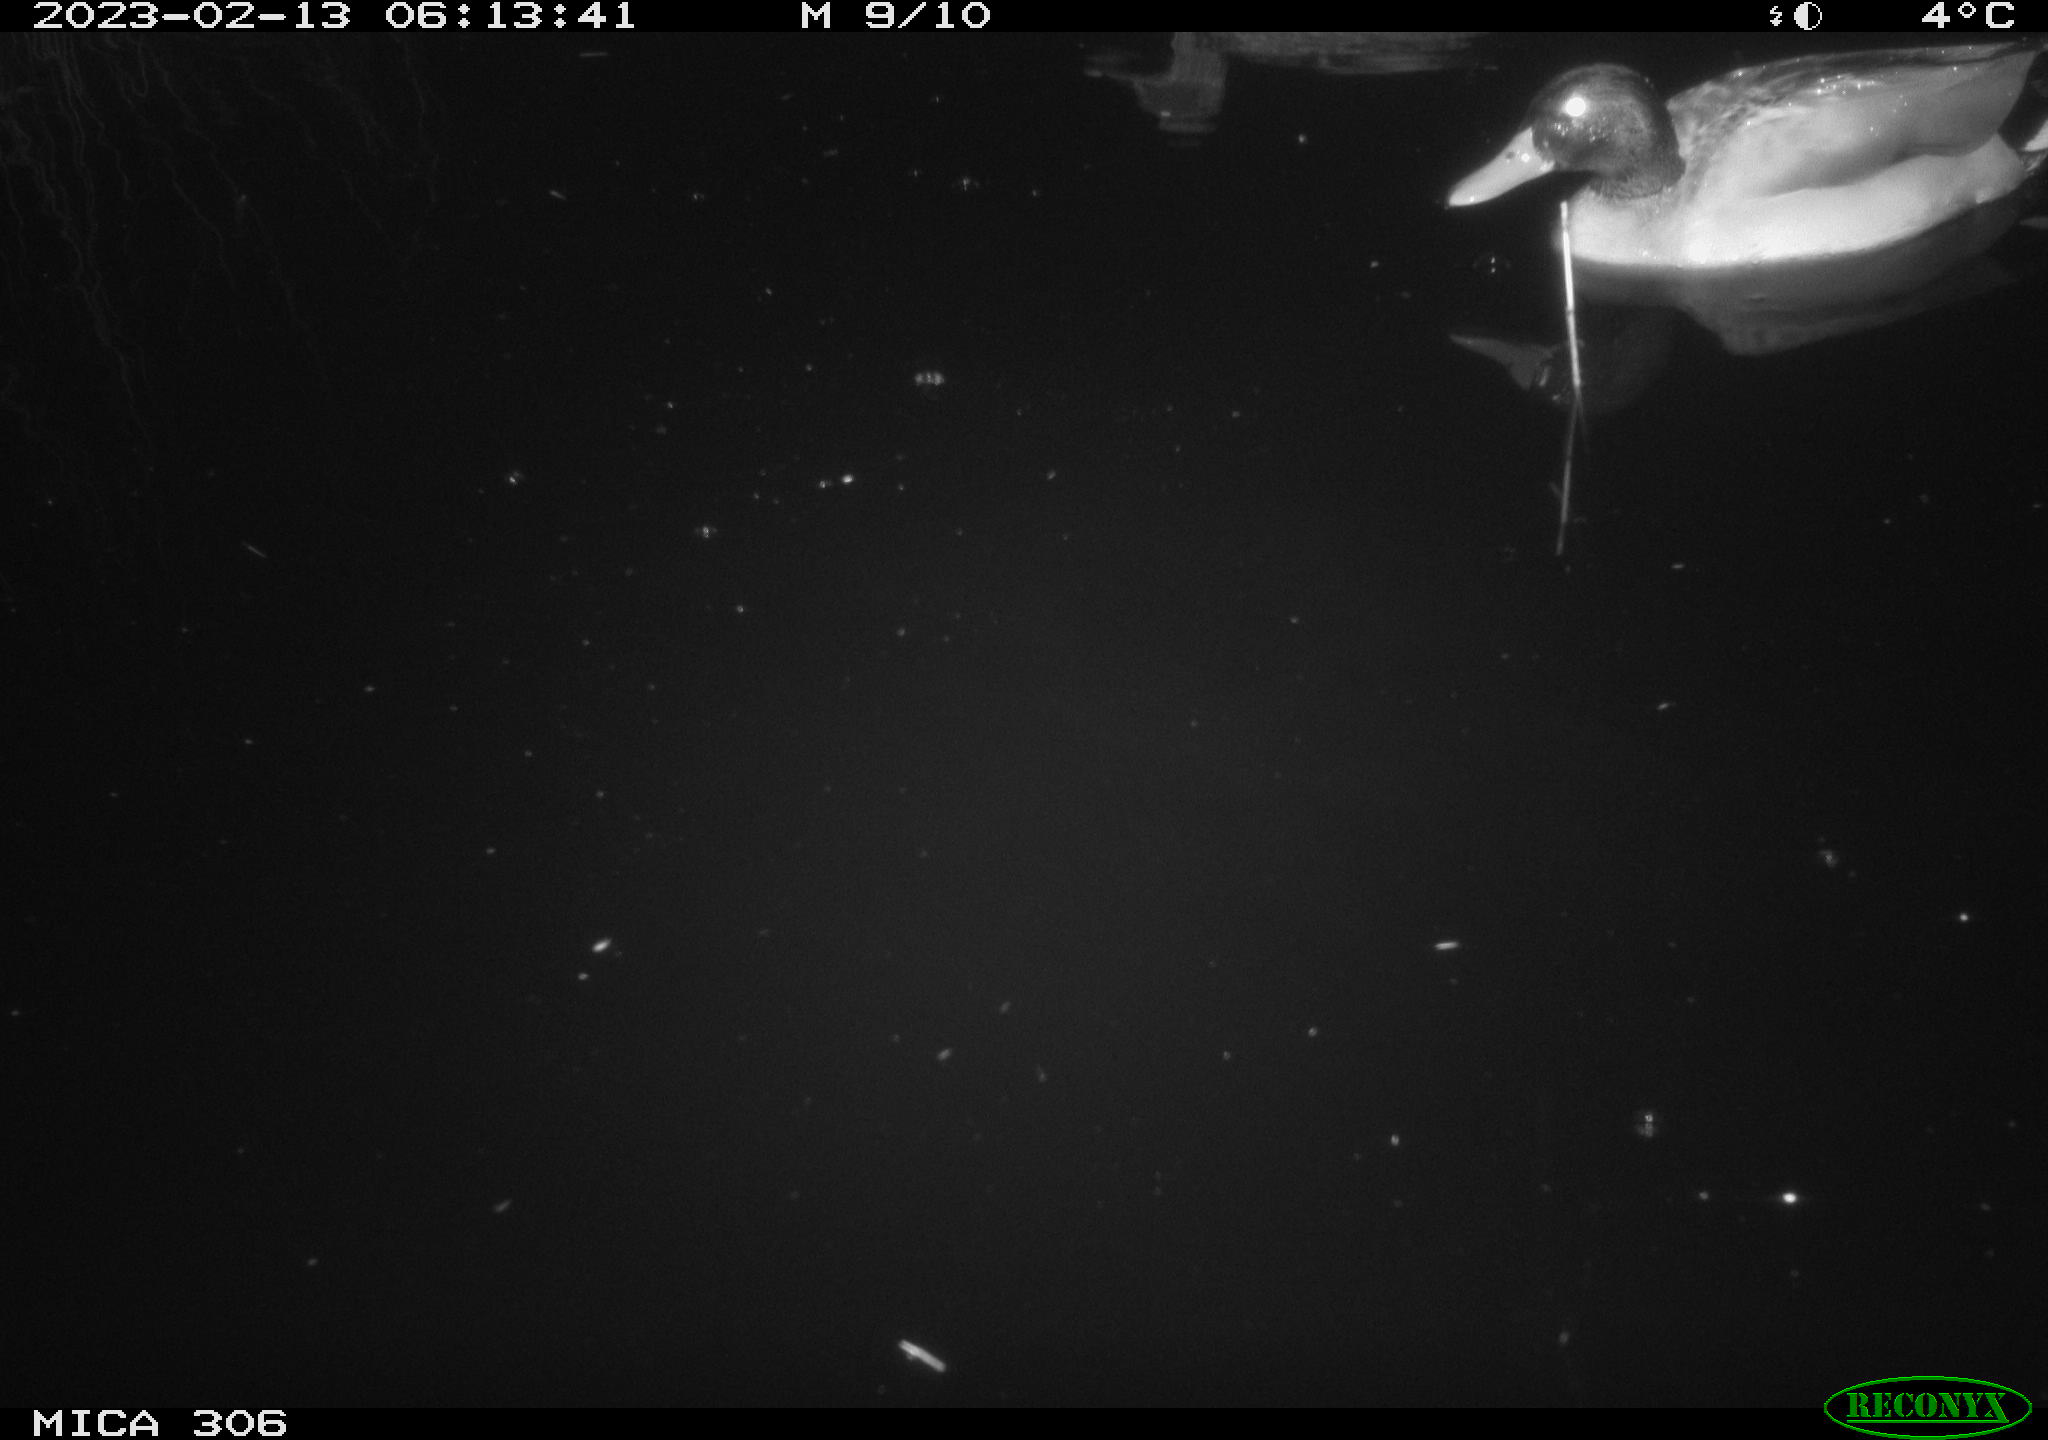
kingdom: Animalia
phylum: Chordata
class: Aves
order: Anseriformes
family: Anatidae
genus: Anas
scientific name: Anas
